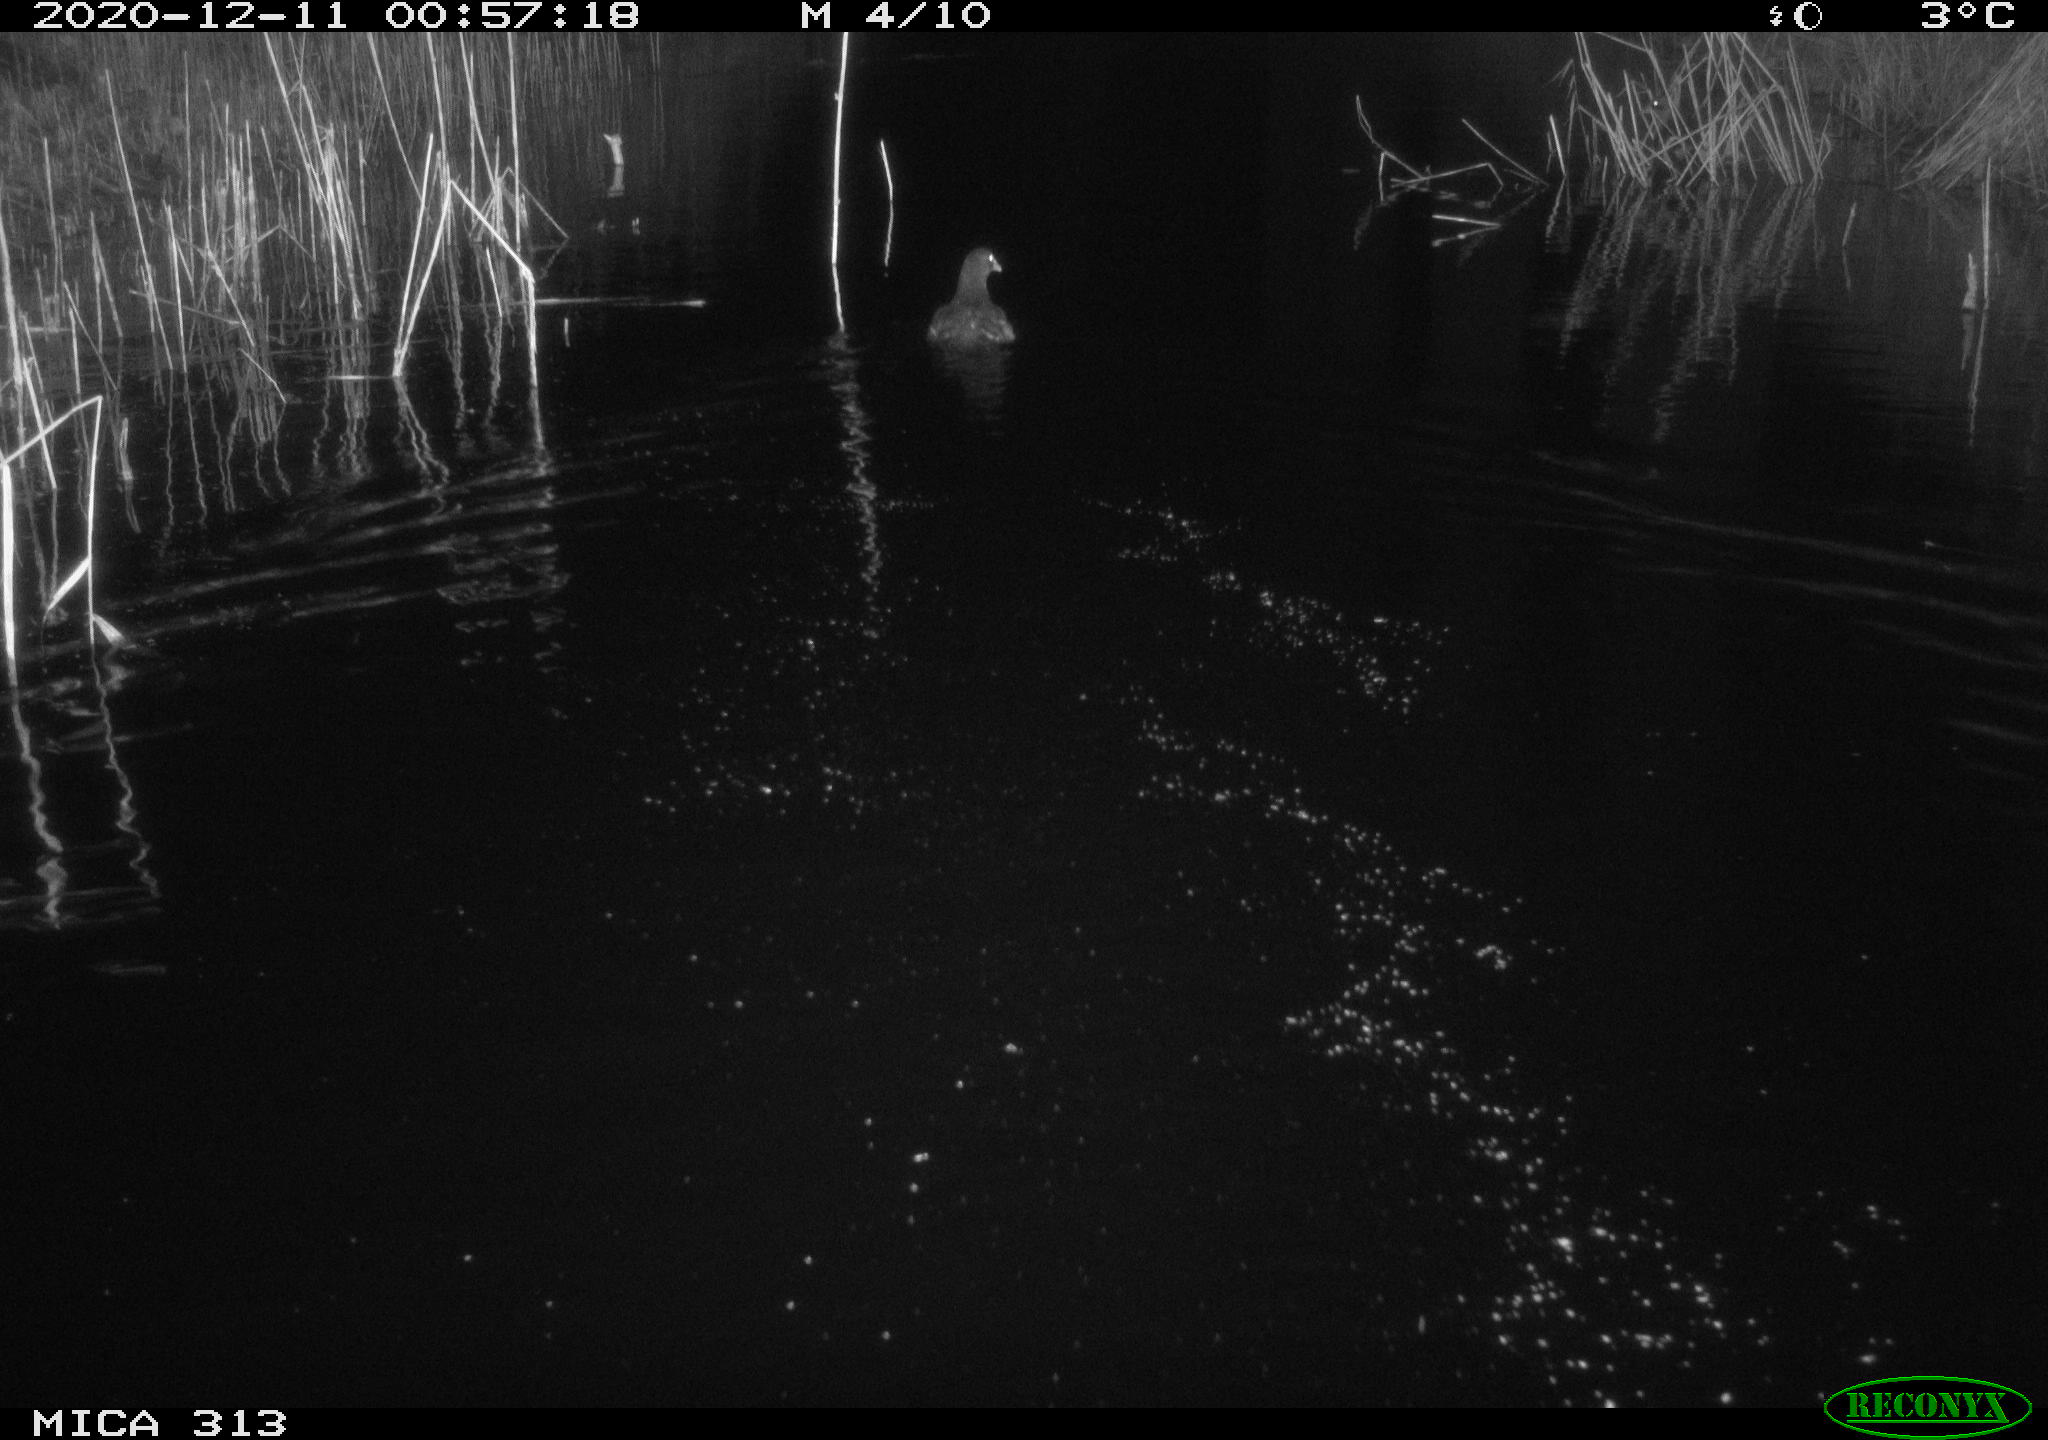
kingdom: Animalia
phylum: Chordata
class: Aves
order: Gruiformes
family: Rallidae
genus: Gallinula
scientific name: Gallinula chloropus
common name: Common moorhen
